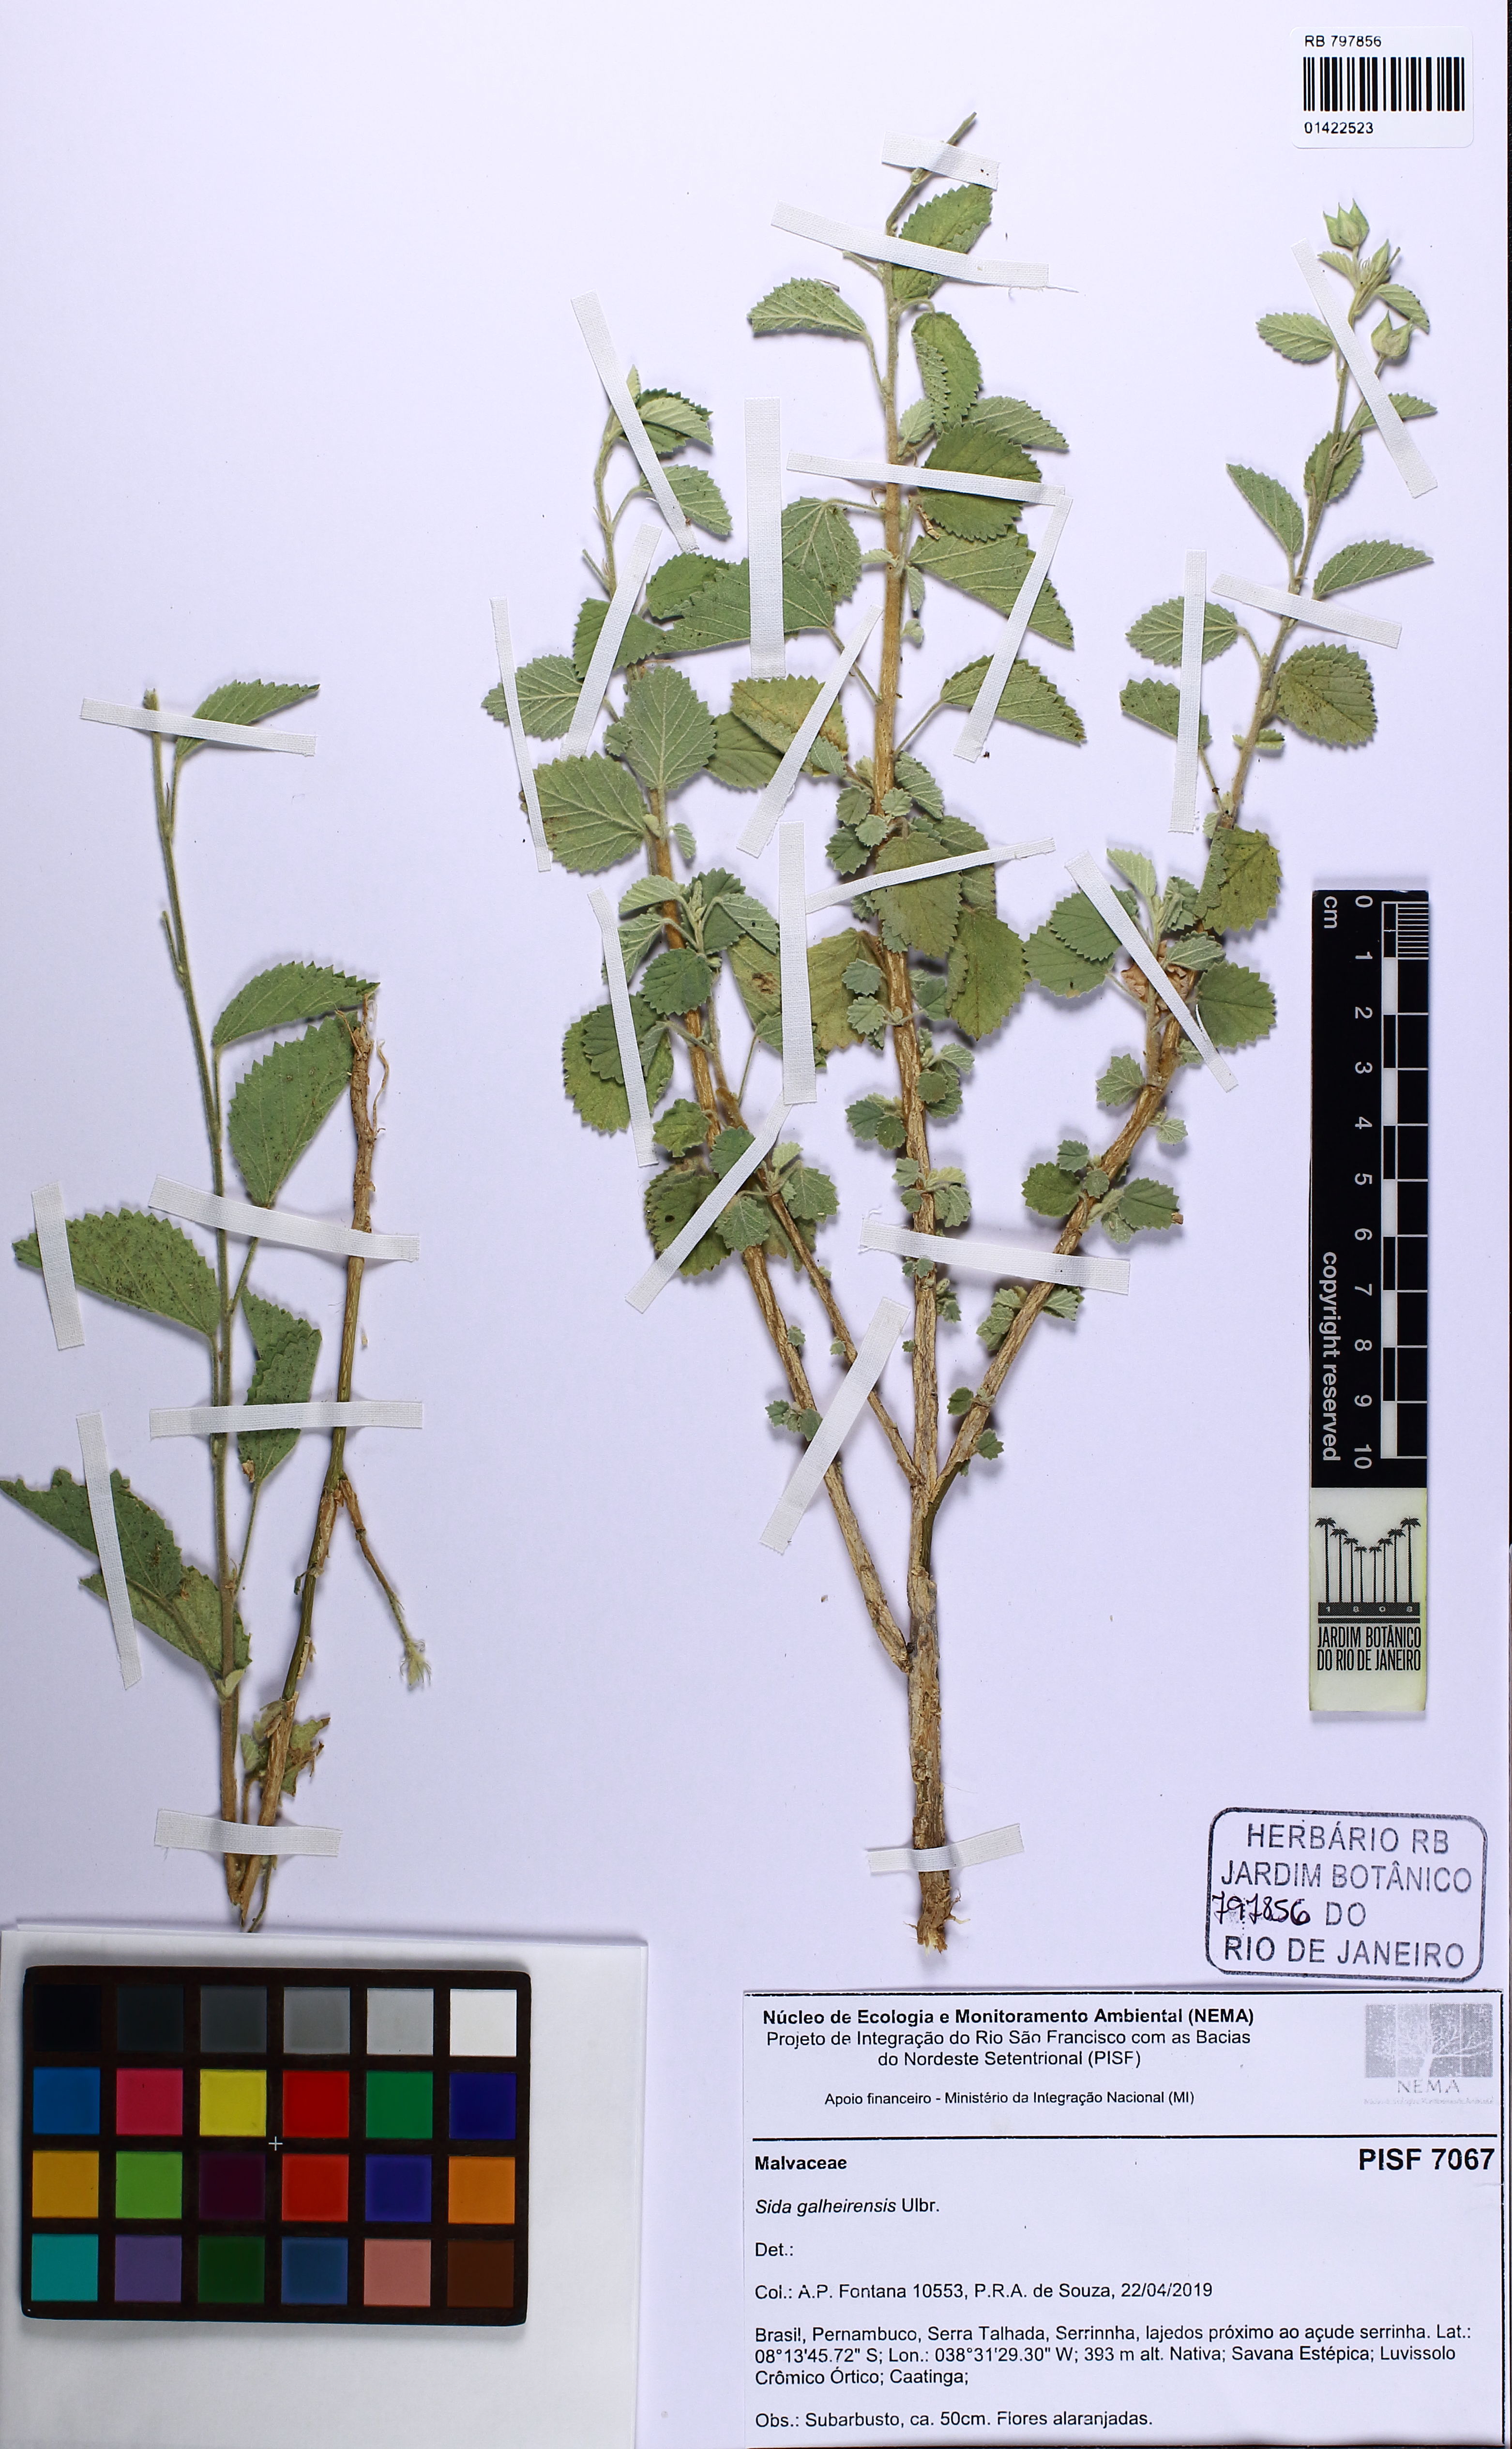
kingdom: Plantae
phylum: Tracheophyta
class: Magnoliopsida
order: Malvales
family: Malvaceae
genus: Sida
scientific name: Sida galheirensis
